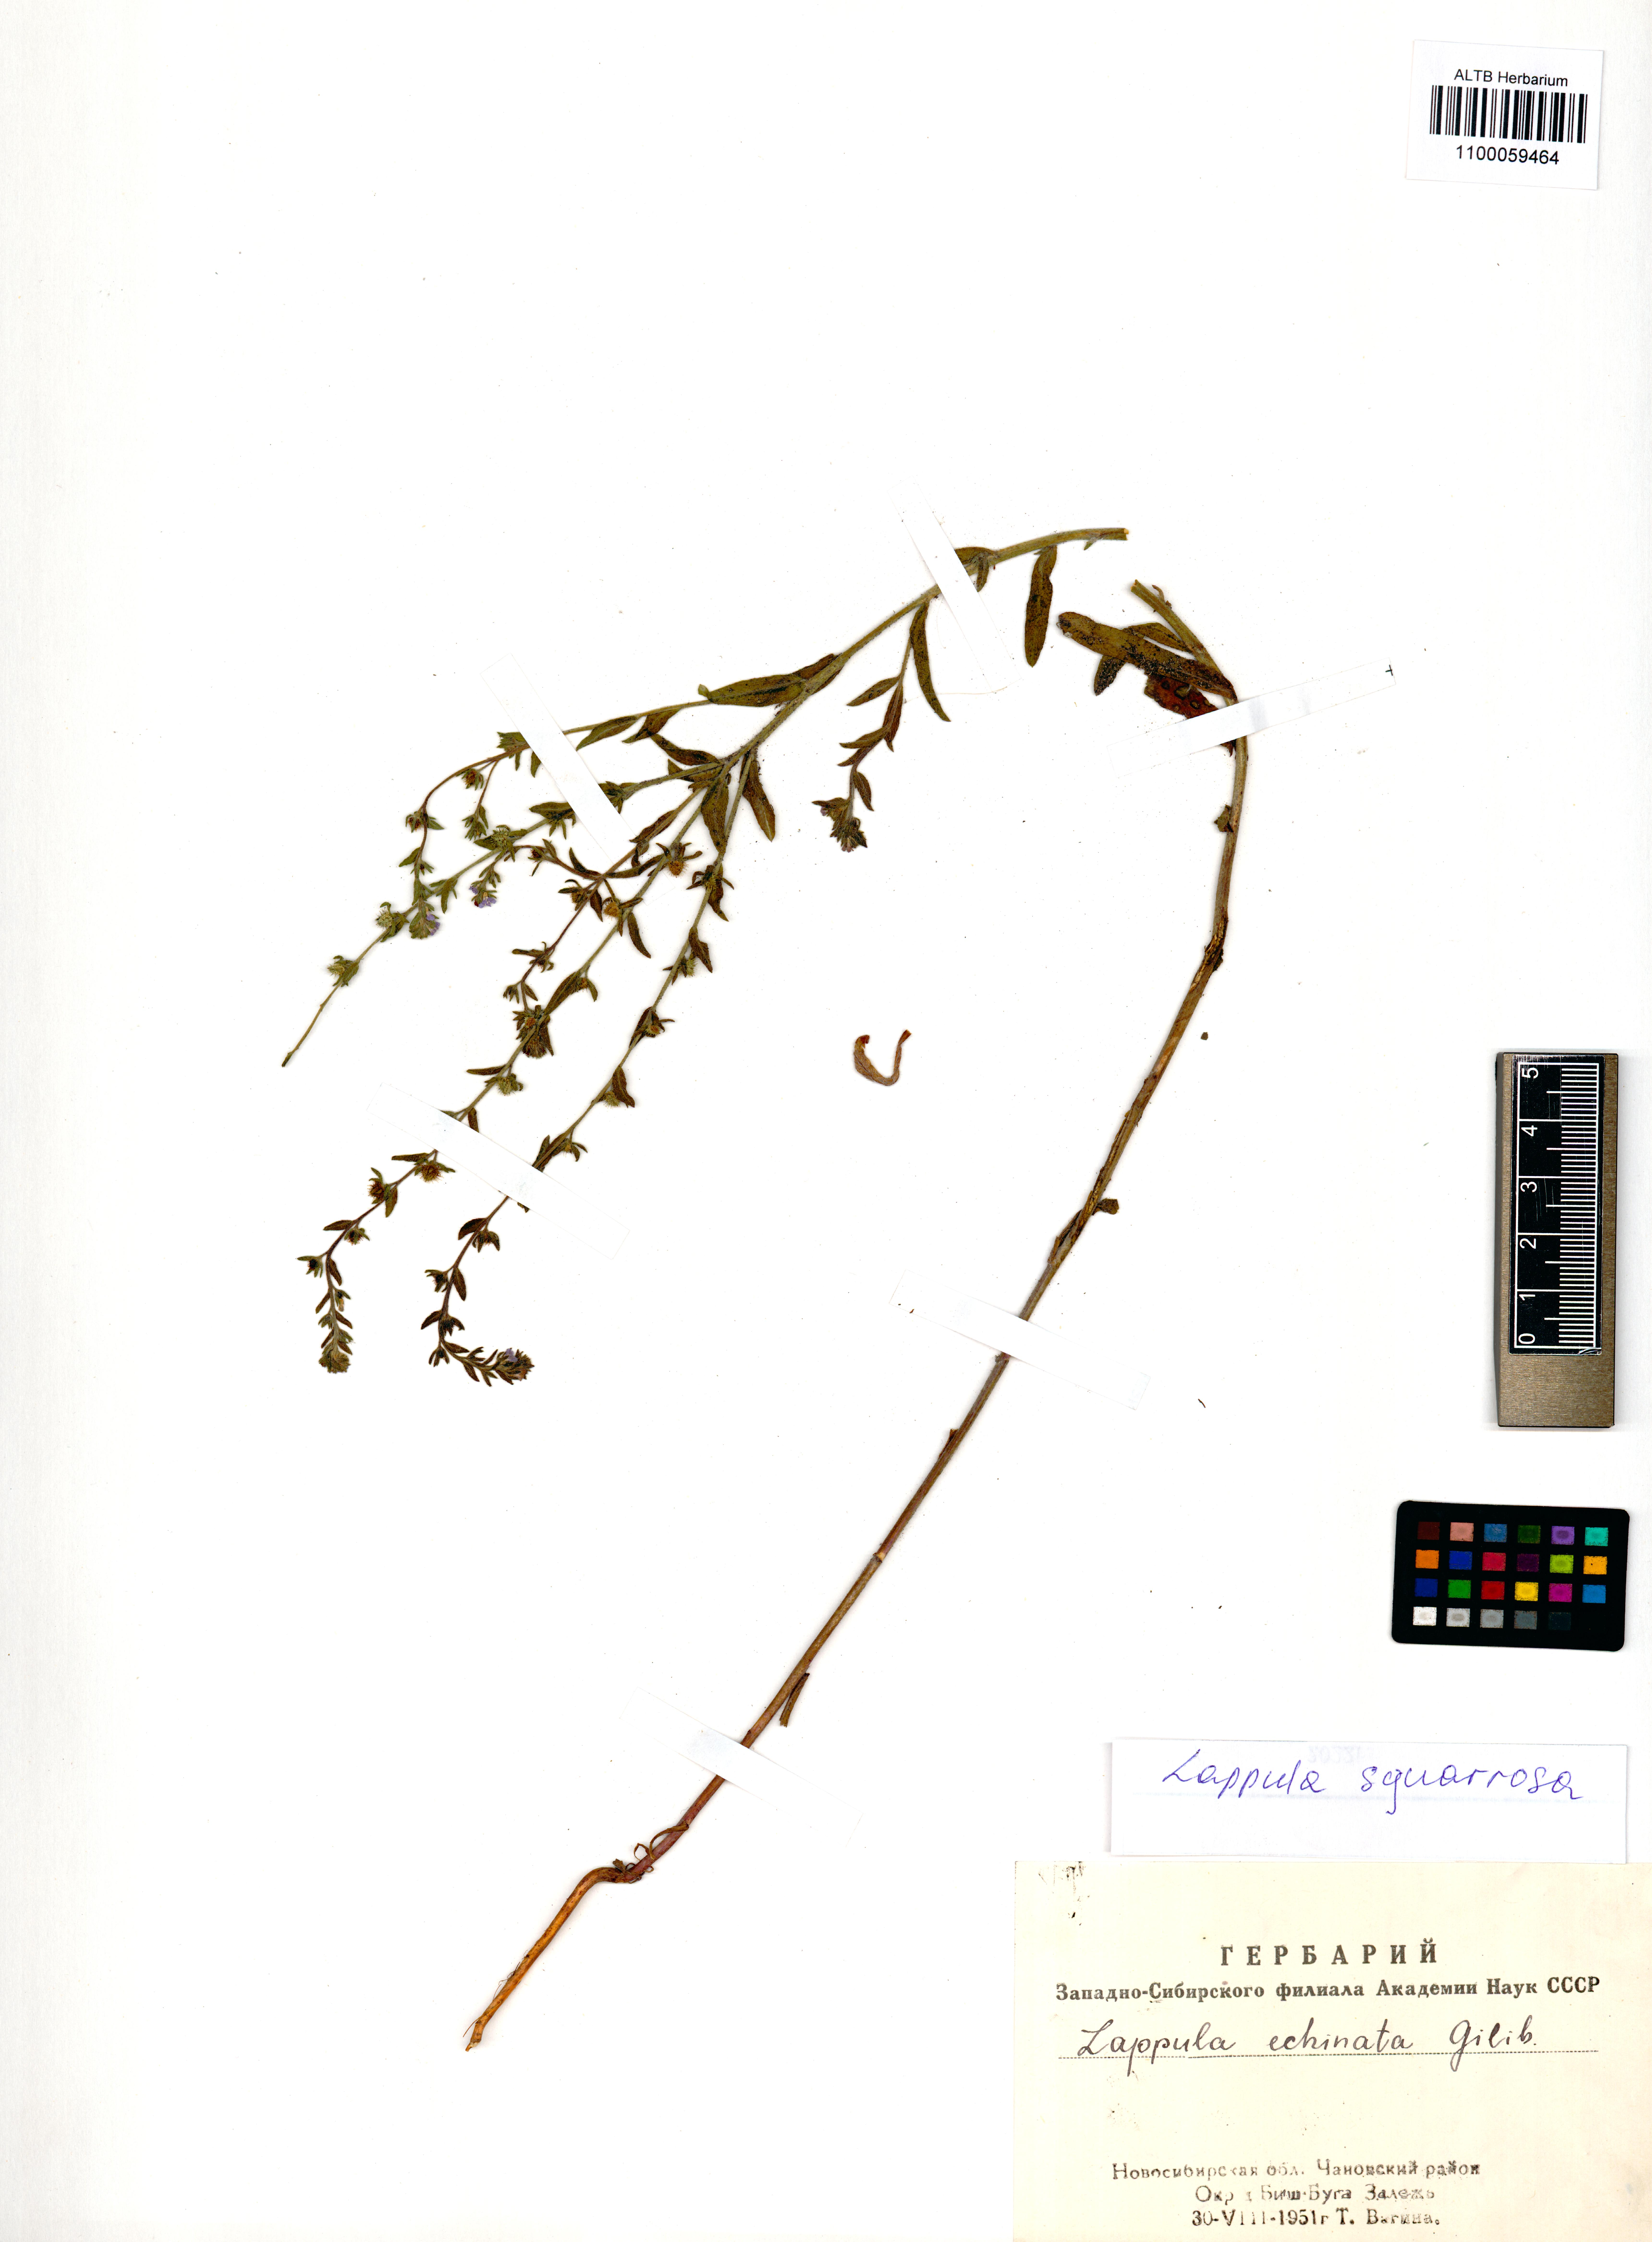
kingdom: Plantae
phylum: Tracheophyta
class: Magnoliopsida
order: Boraginales
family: Boraginaceae
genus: Lappula
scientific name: Lappula squarrosa
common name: European stickseed
